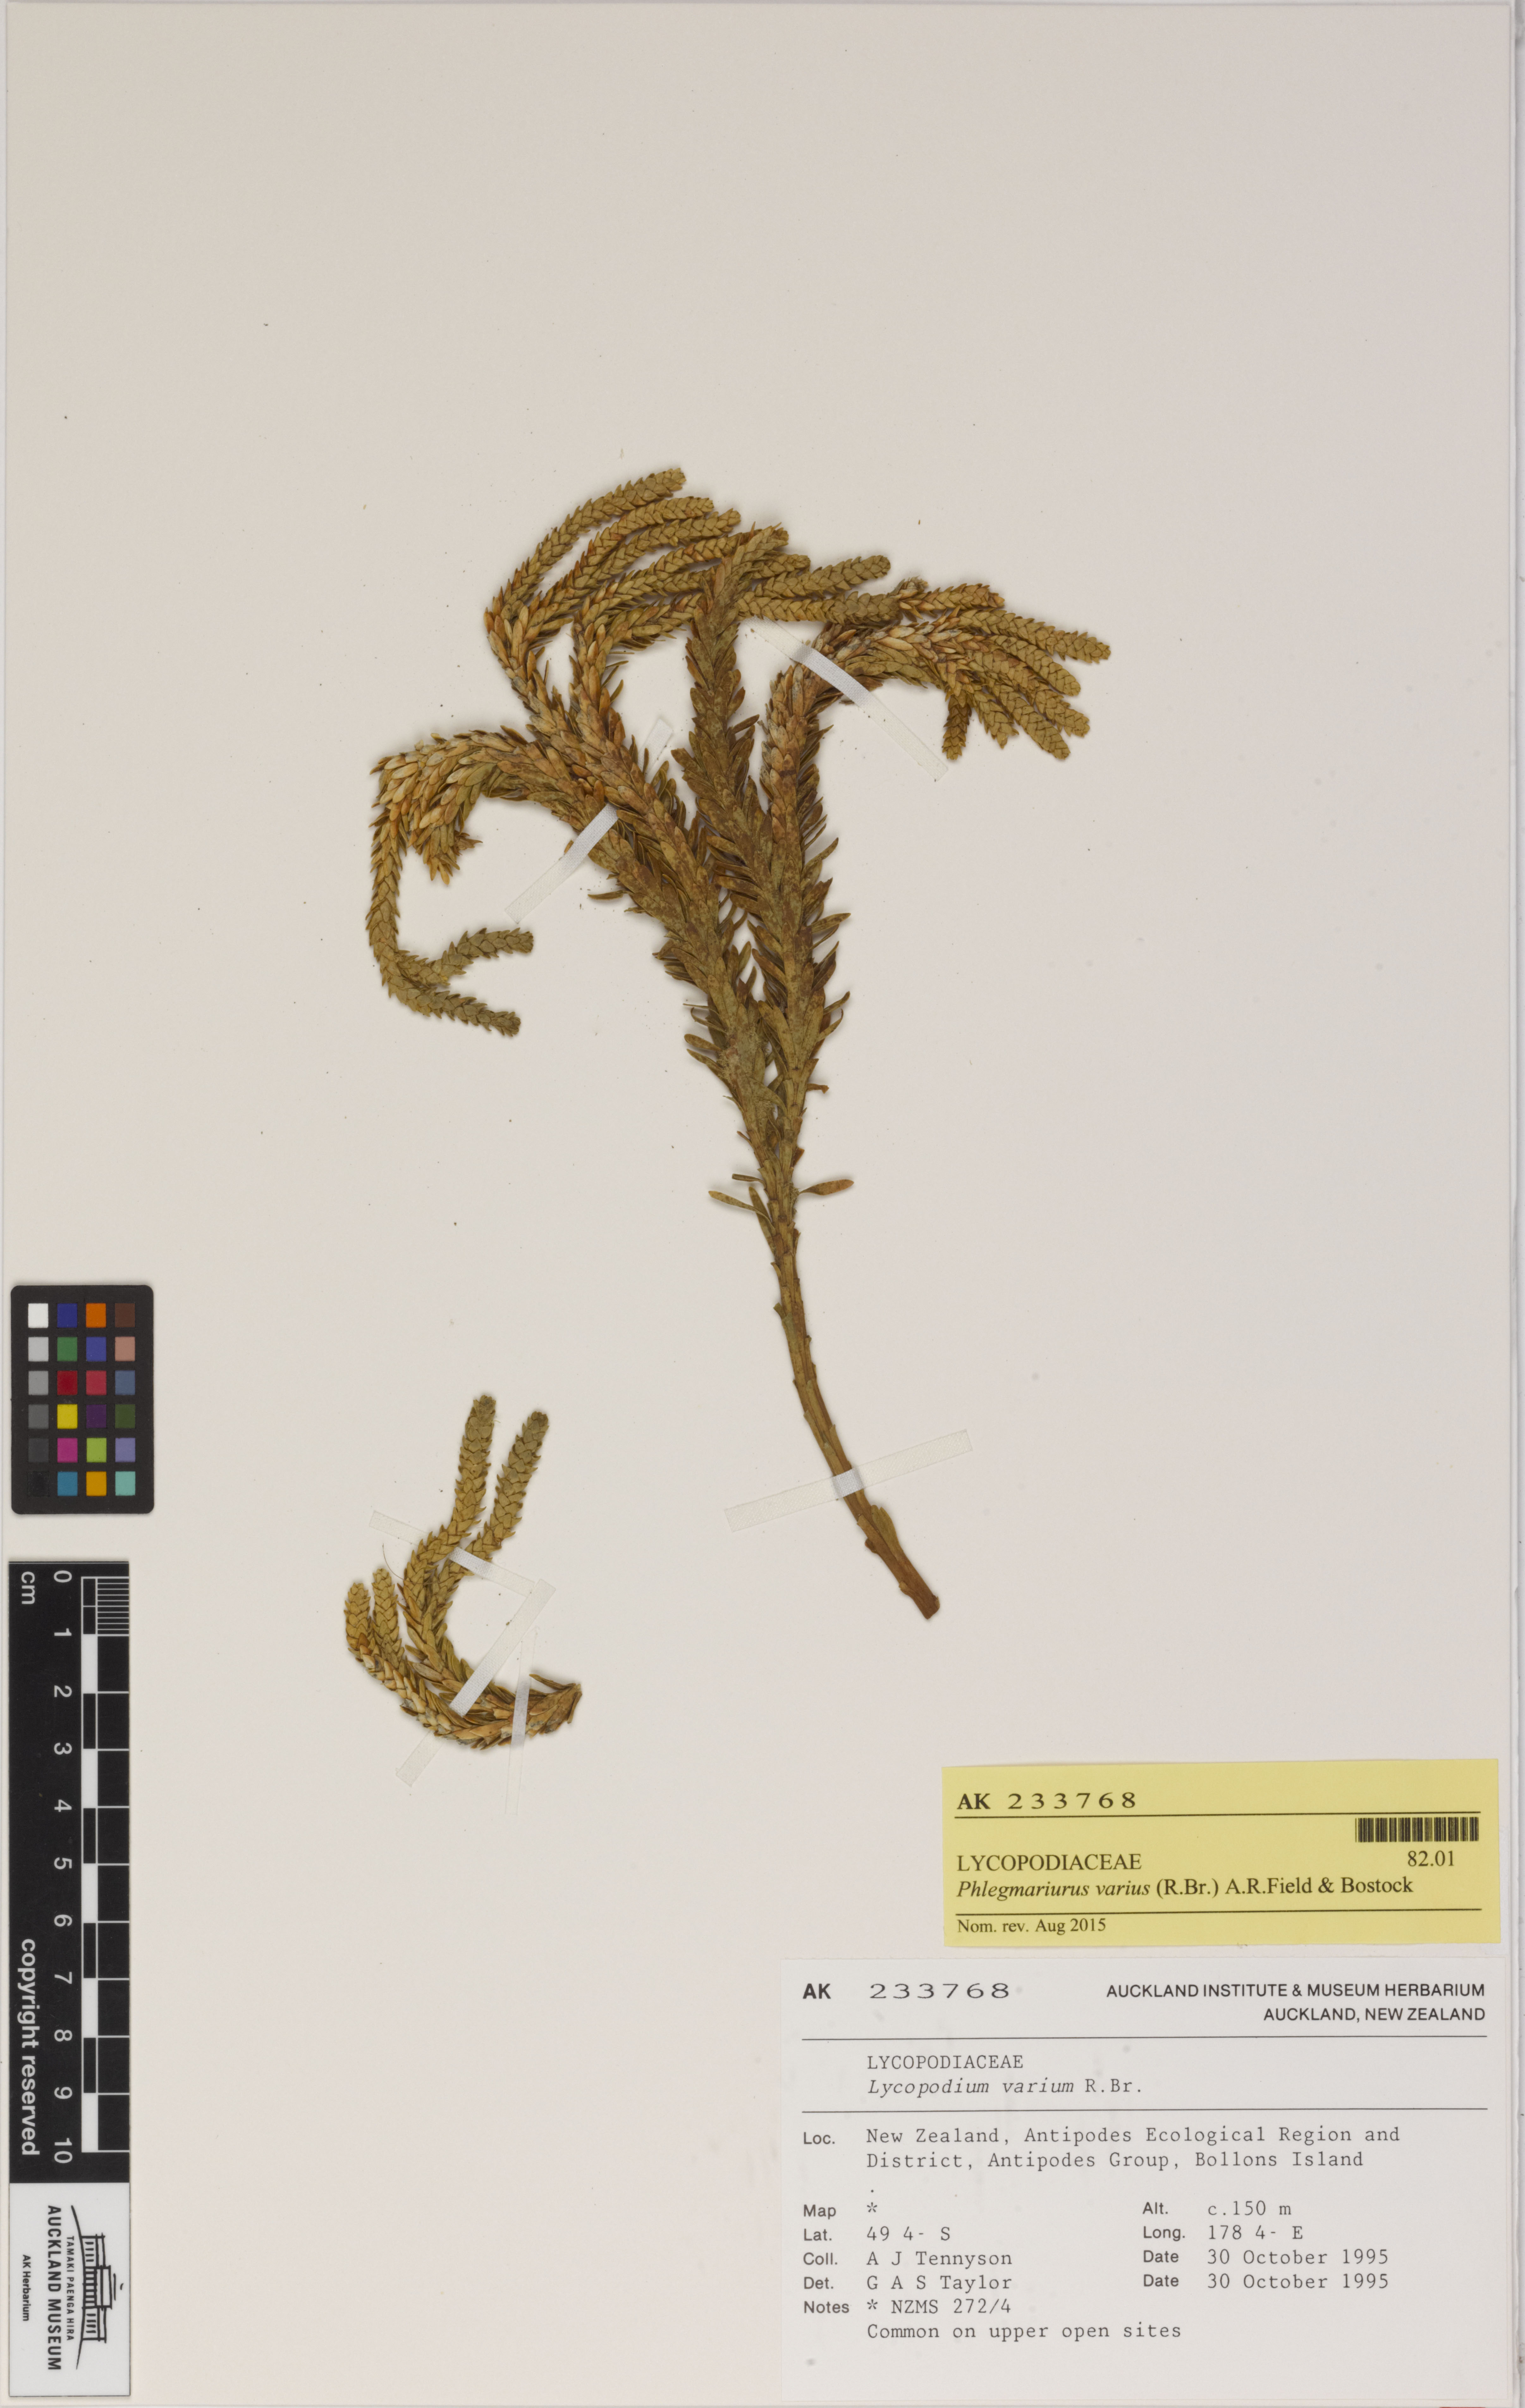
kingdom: Plantae
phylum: Tracheophyta
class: Lycopodiopsida
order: Lycopodiales
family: Lycopodiaceae
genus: Phlegmariurus
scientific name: Phlegmariurus varius
